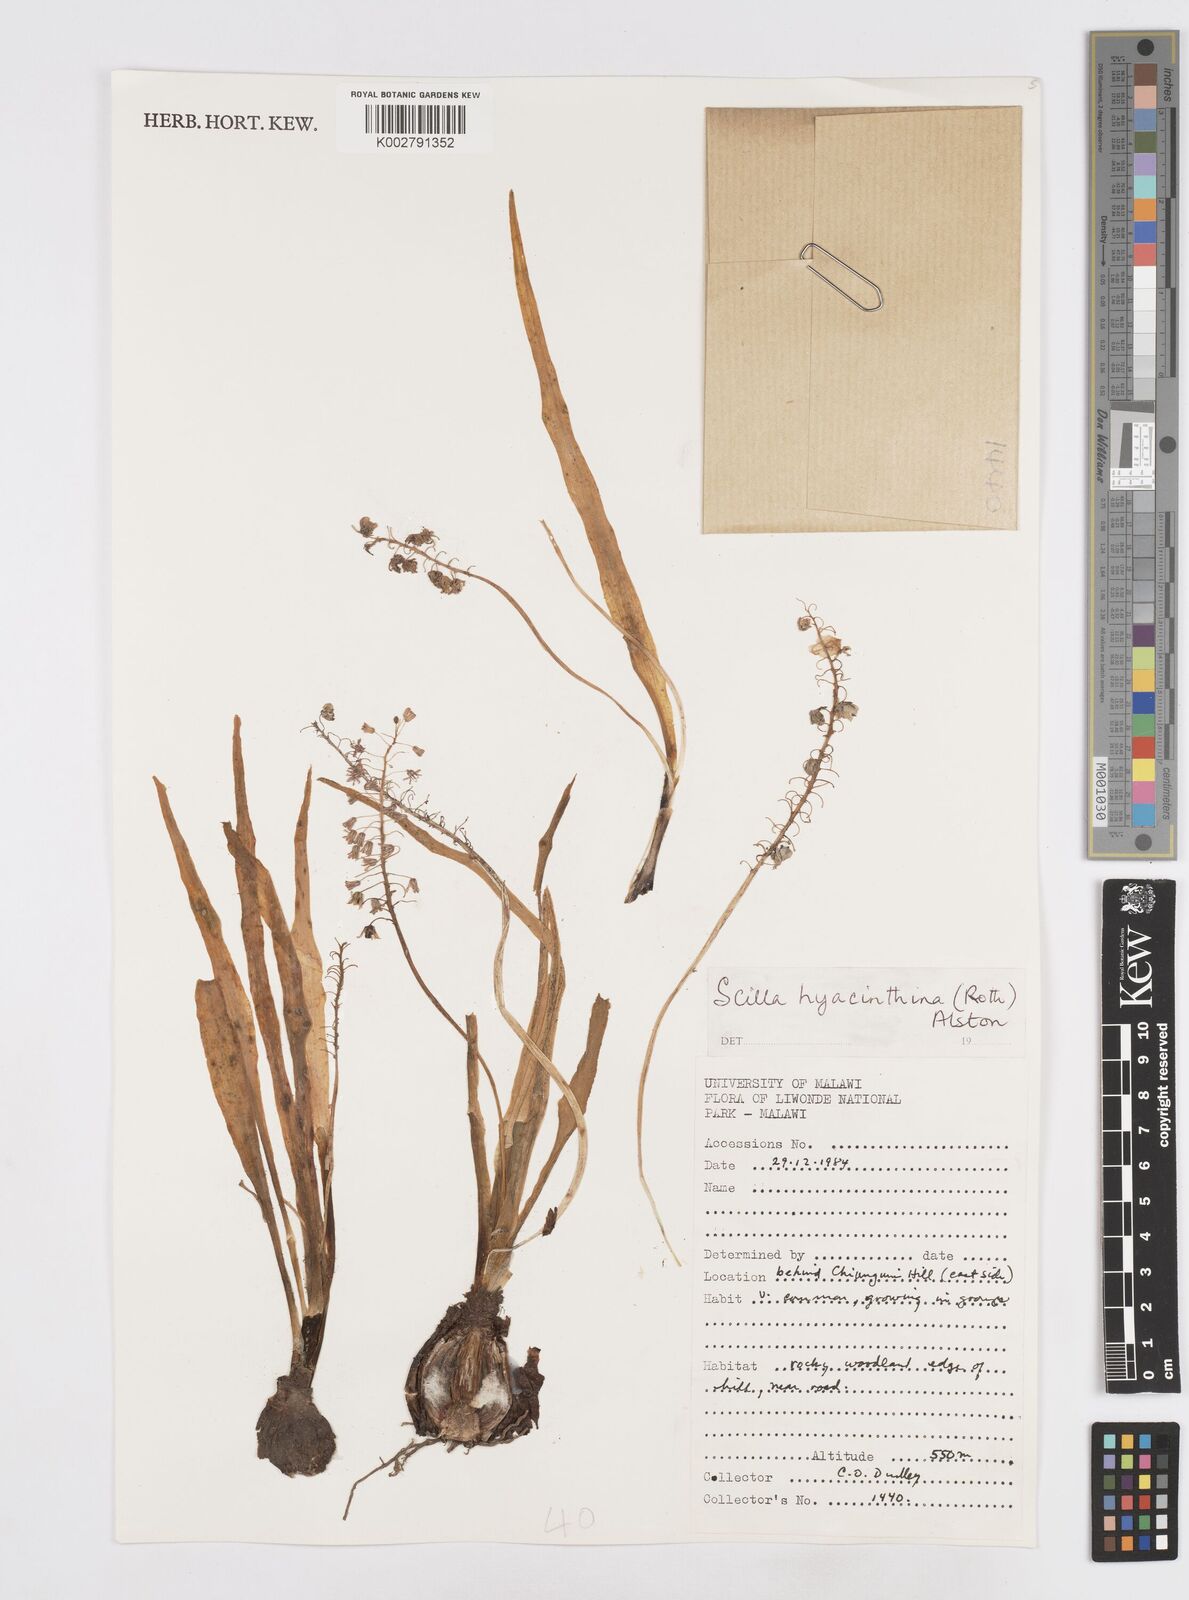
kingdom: Plantae
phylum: Tracheophyta
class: Liliopsida
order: Asparagales
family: Asparagaceae
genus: Ledebouria
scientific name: Ledebouria revoluta
